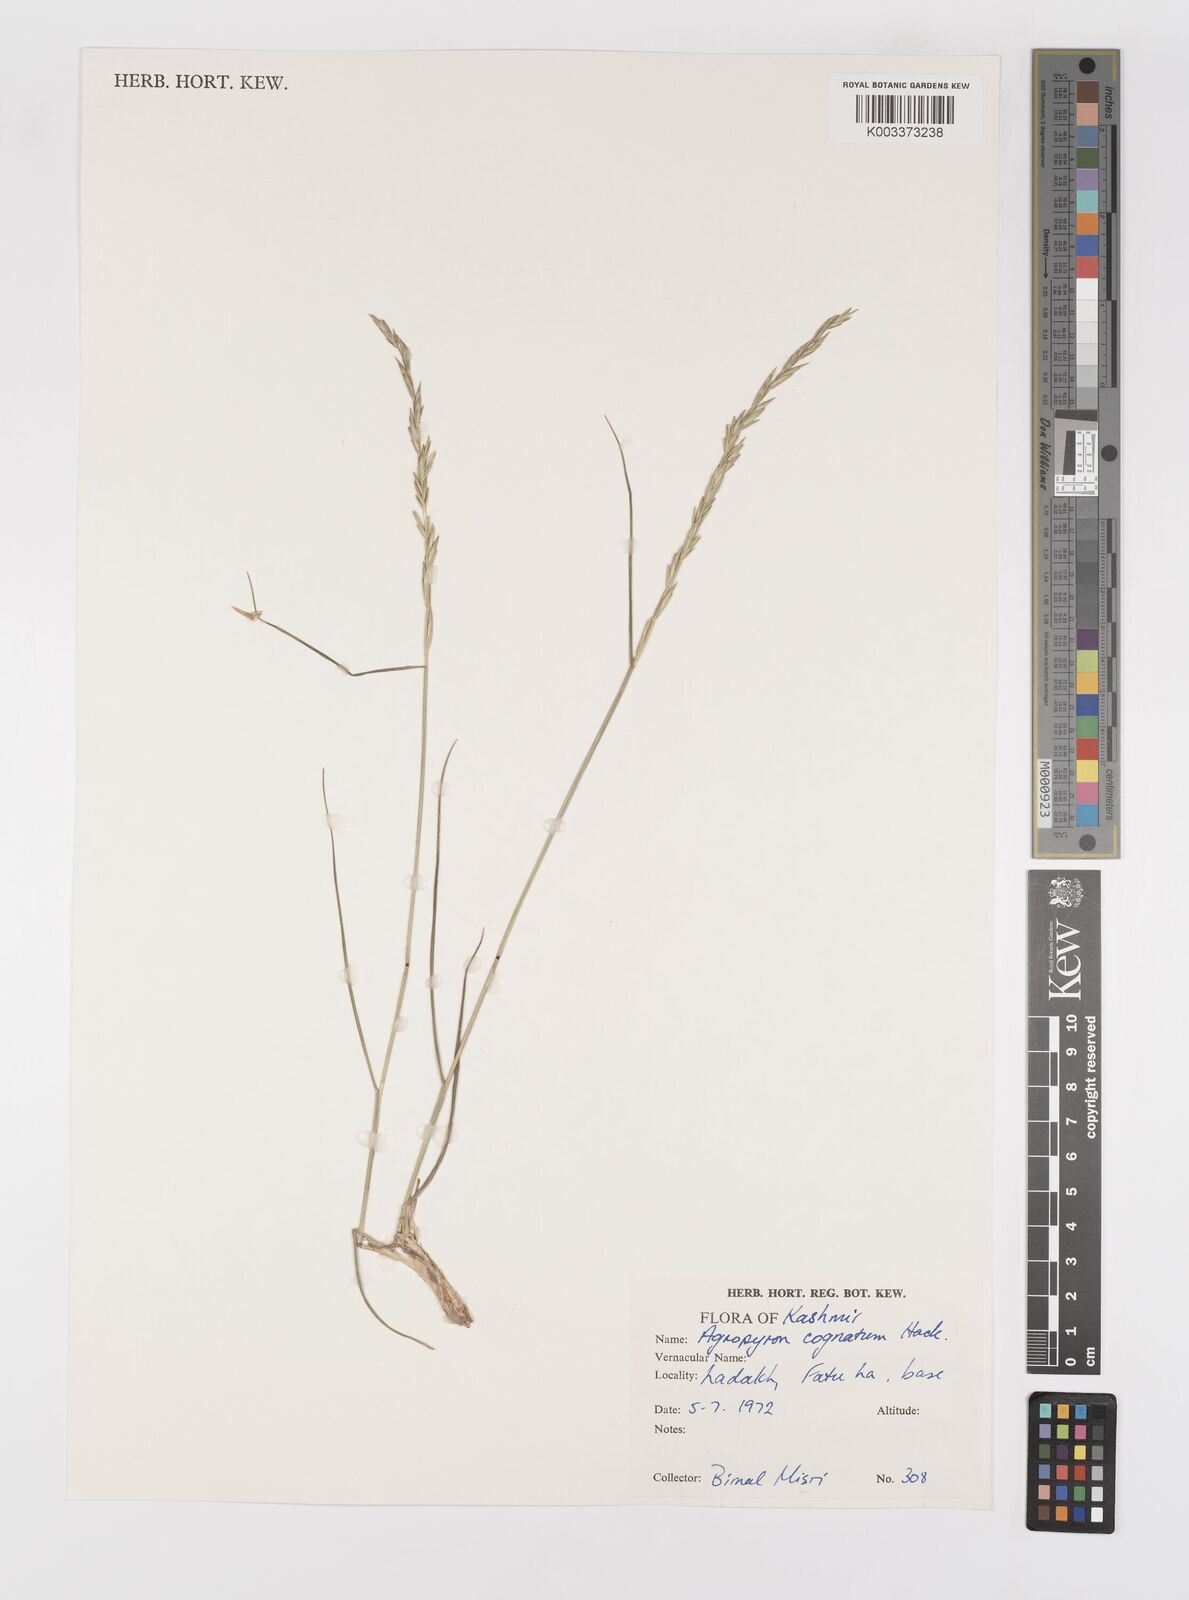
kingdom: Plantae
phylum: Tracheophyta
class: Liliopsida
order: Poales
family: Poaceae
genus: Pseudoroegneria
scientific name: Pseudoroegneria cognata
